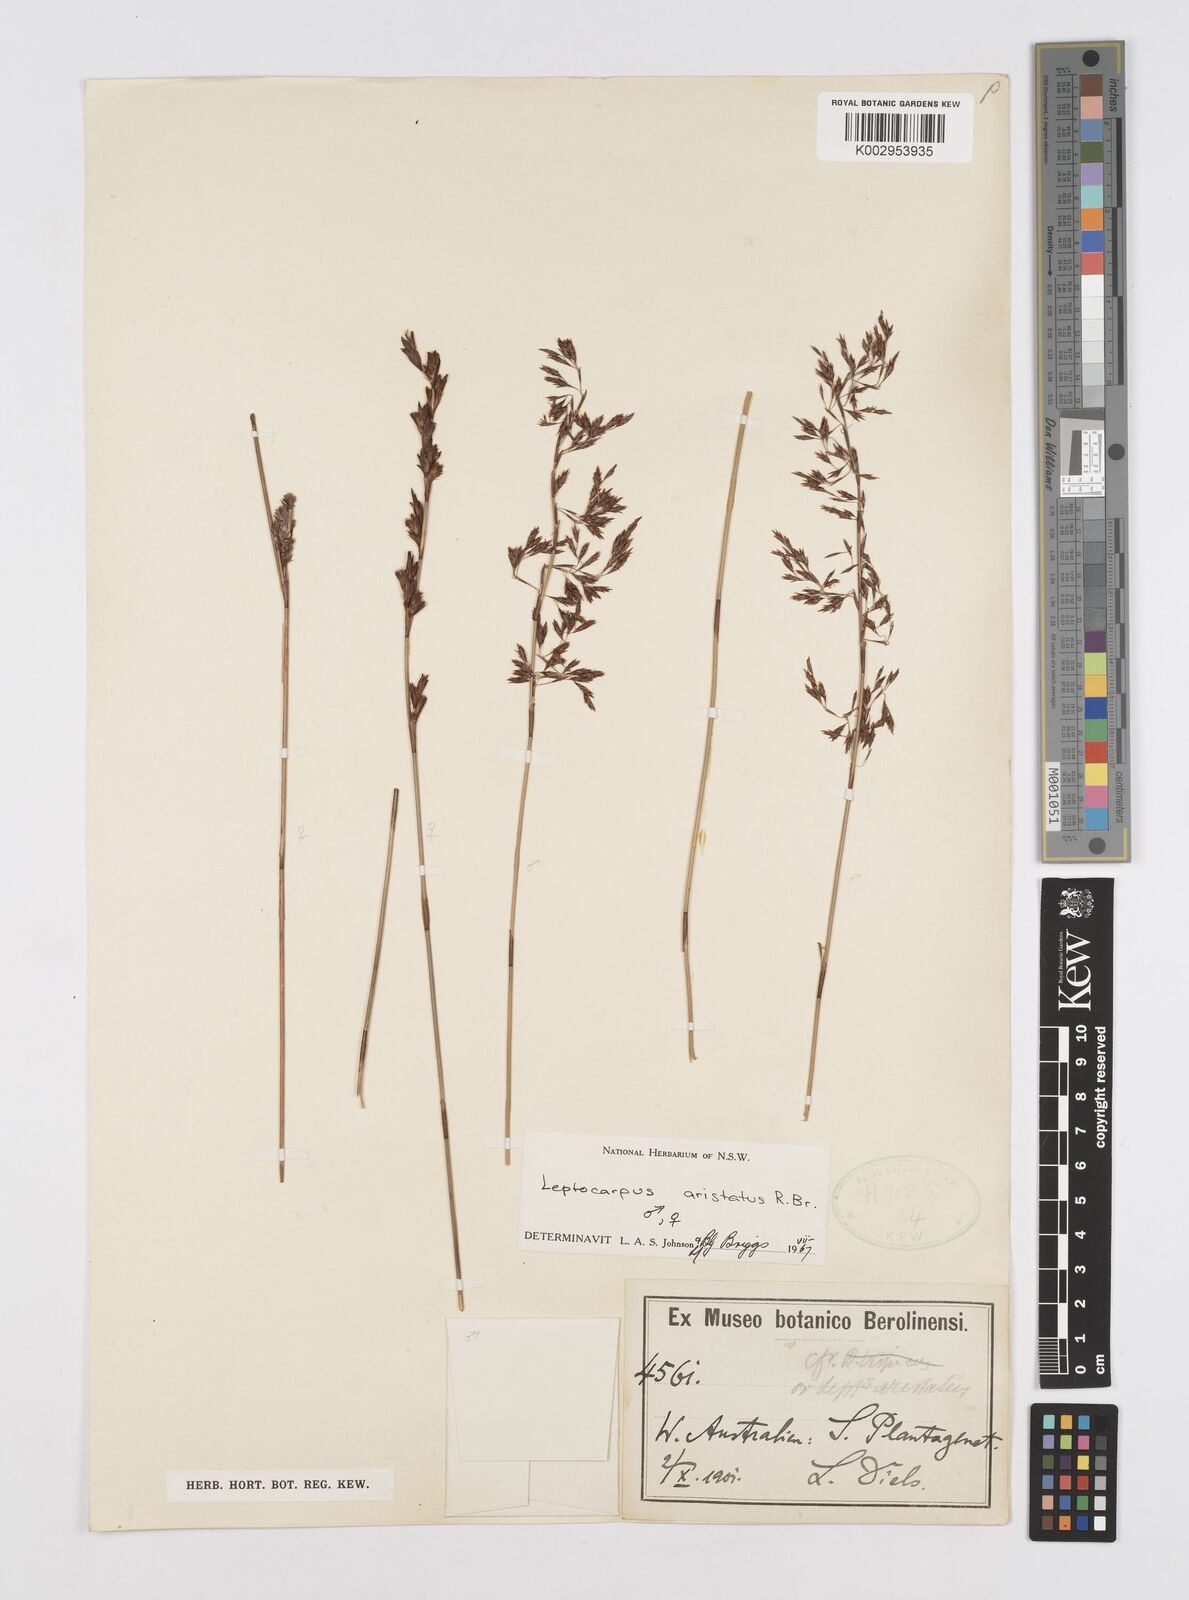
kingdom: Plantae
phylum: Tracheophyta
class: Liliopsida
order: Poales
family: Restionaceae
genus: Chaetanthus
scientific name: Chaetanthus aristatus
